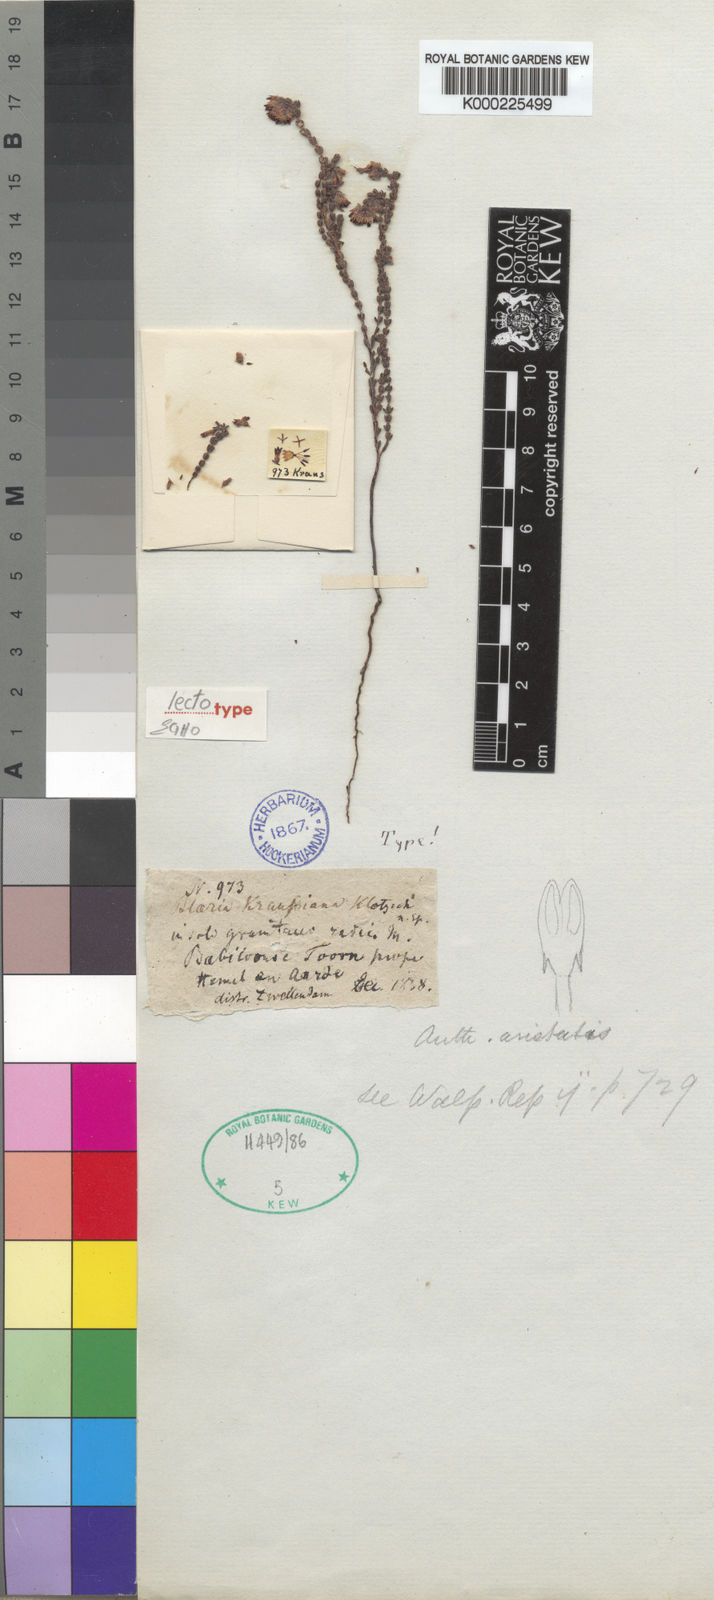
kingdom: Plantae
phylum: Tracheophyta
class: Magnoliopsida
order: Ericales
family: Ericaceae
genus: Erica
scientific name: Erica russakiana
